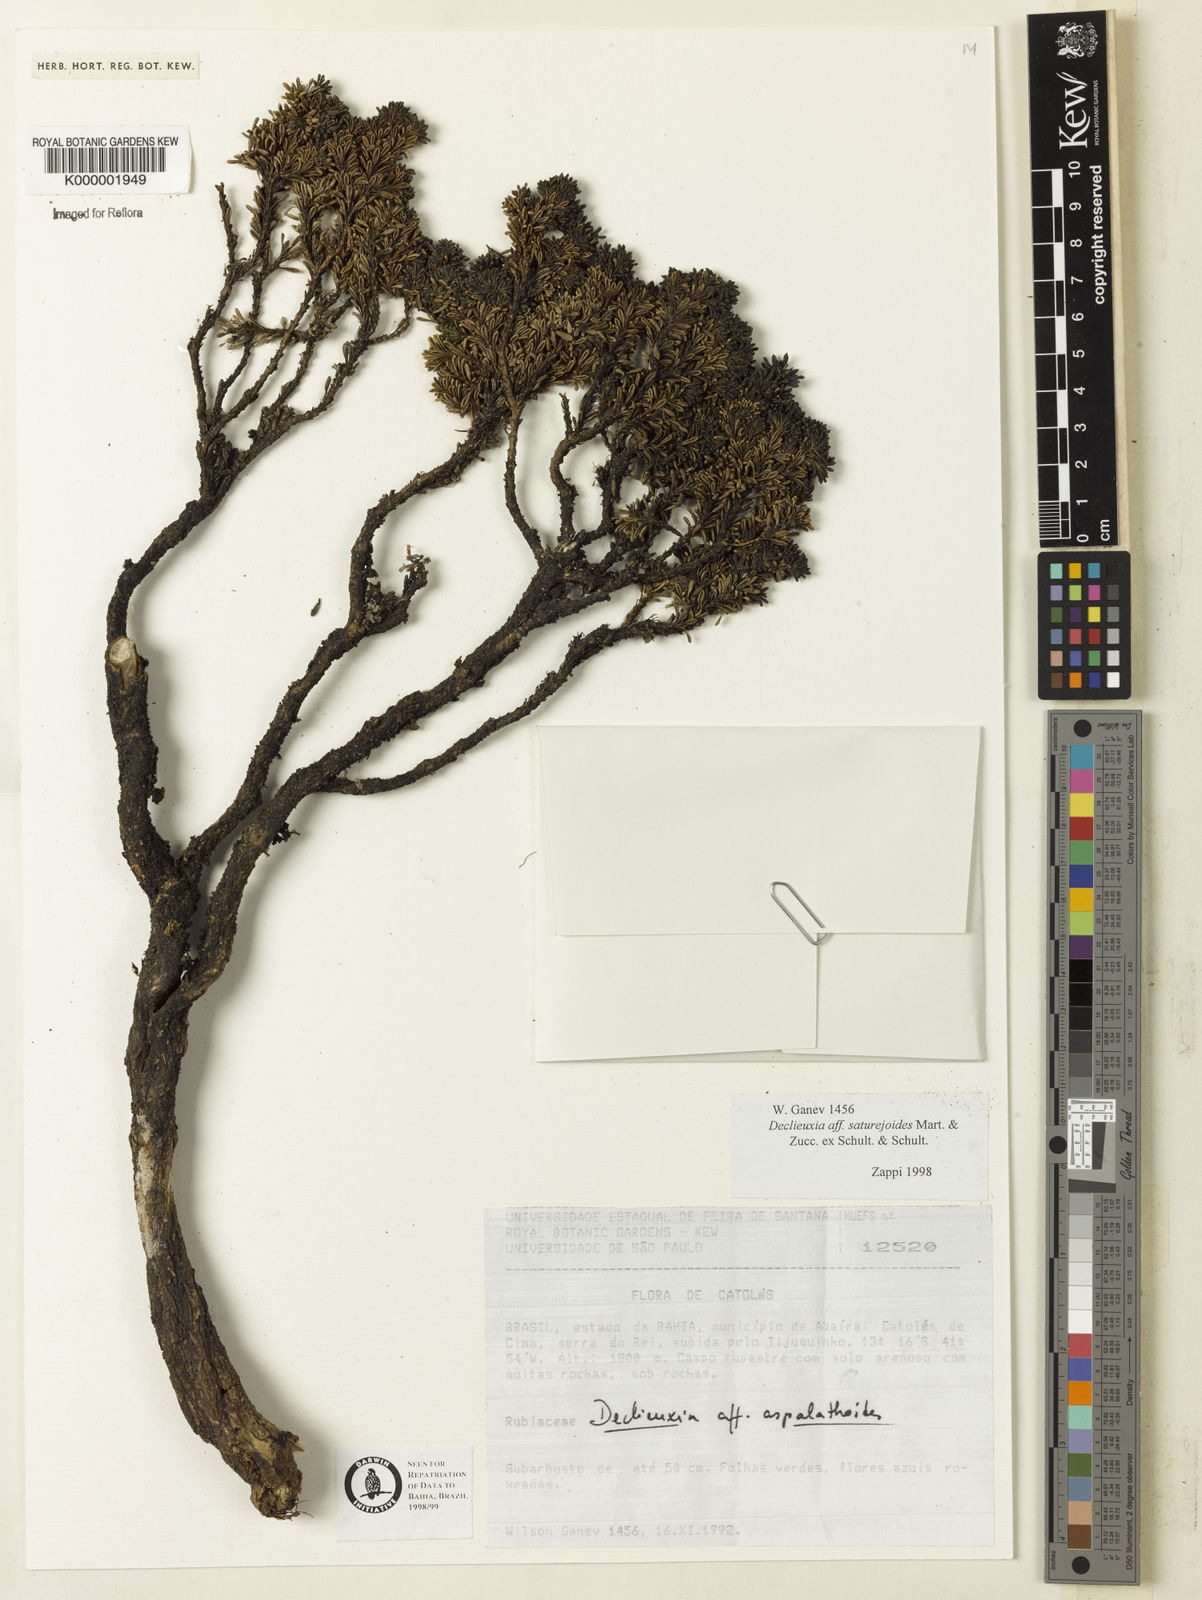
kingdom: Plantae
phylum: Tracheophyta
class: Magnoliopsida
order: Gentianales
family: Rubiaceae
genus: Declieuxia
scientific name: Declieuxia
